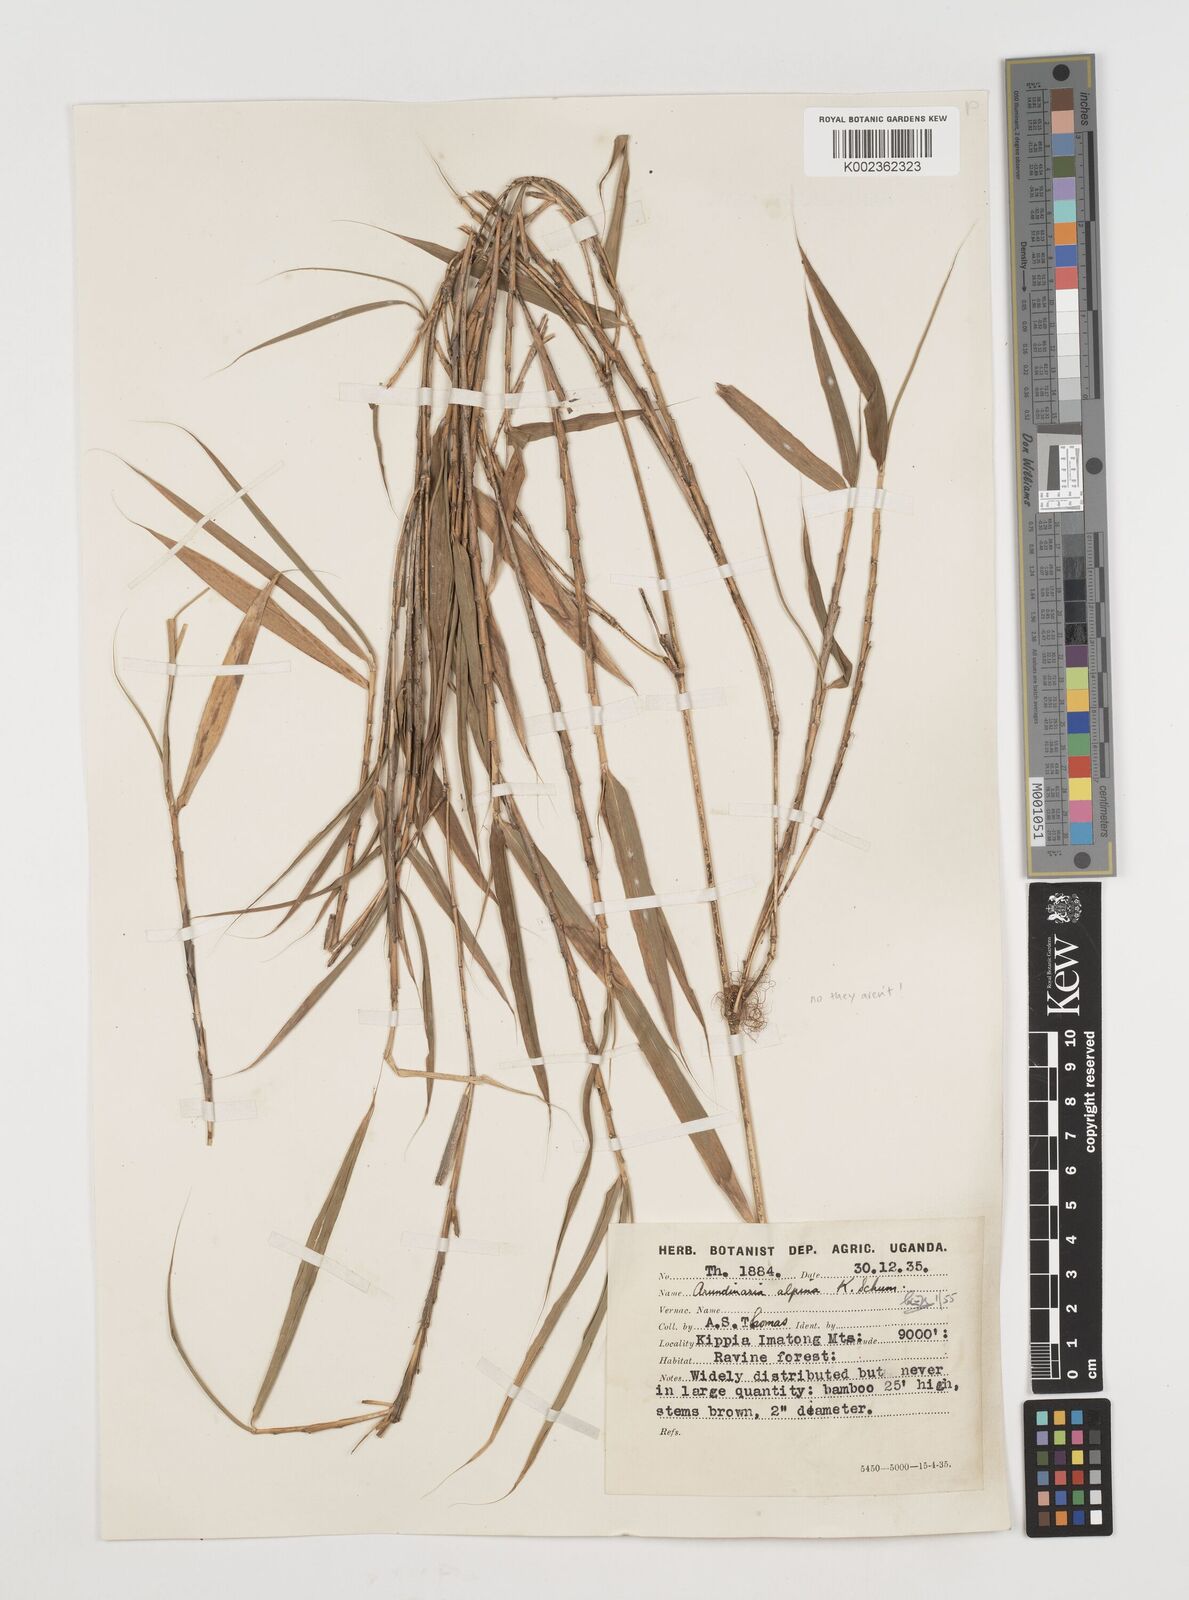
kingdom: Plantae
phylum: Tracheophyta
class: Liliopsida
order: Poales
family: Poaceae
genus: Oldeania
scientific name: Oldeania alpina
